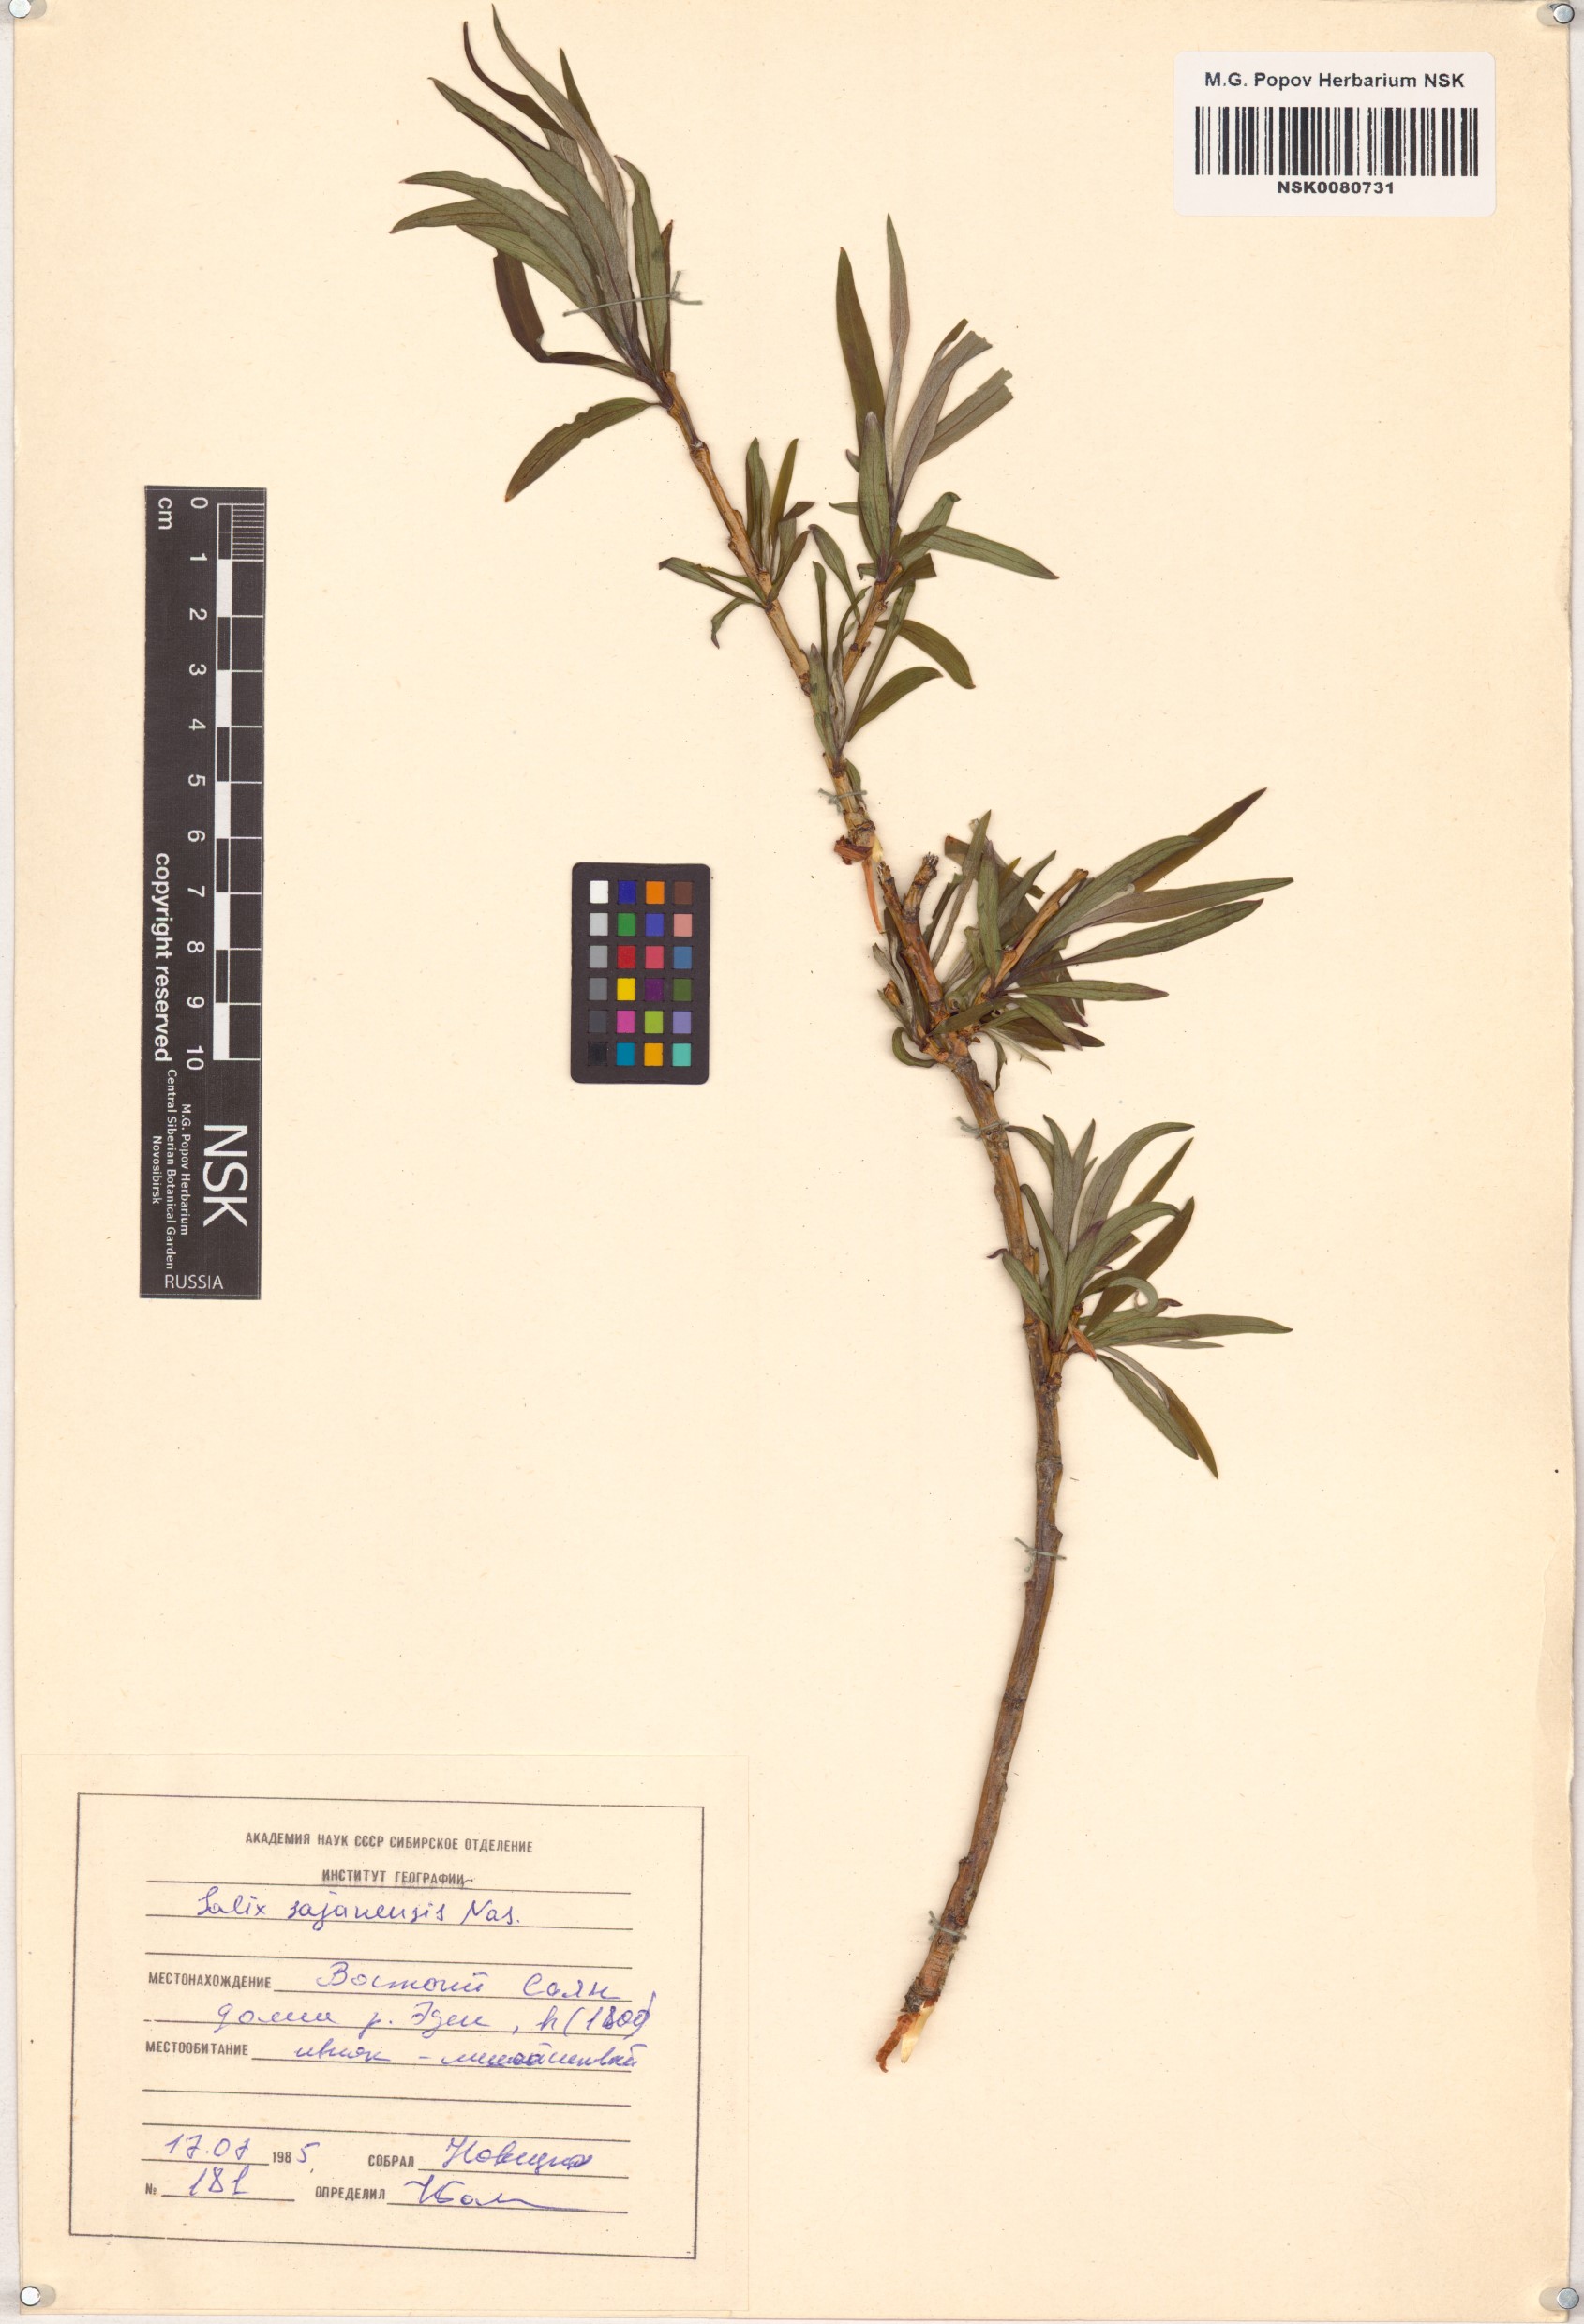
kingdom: Plantae
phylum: Tracheophyta
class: Magnoliopsida
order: Malpighiales
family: Salicaceae
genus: Salix
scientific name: Salix sajanensis
